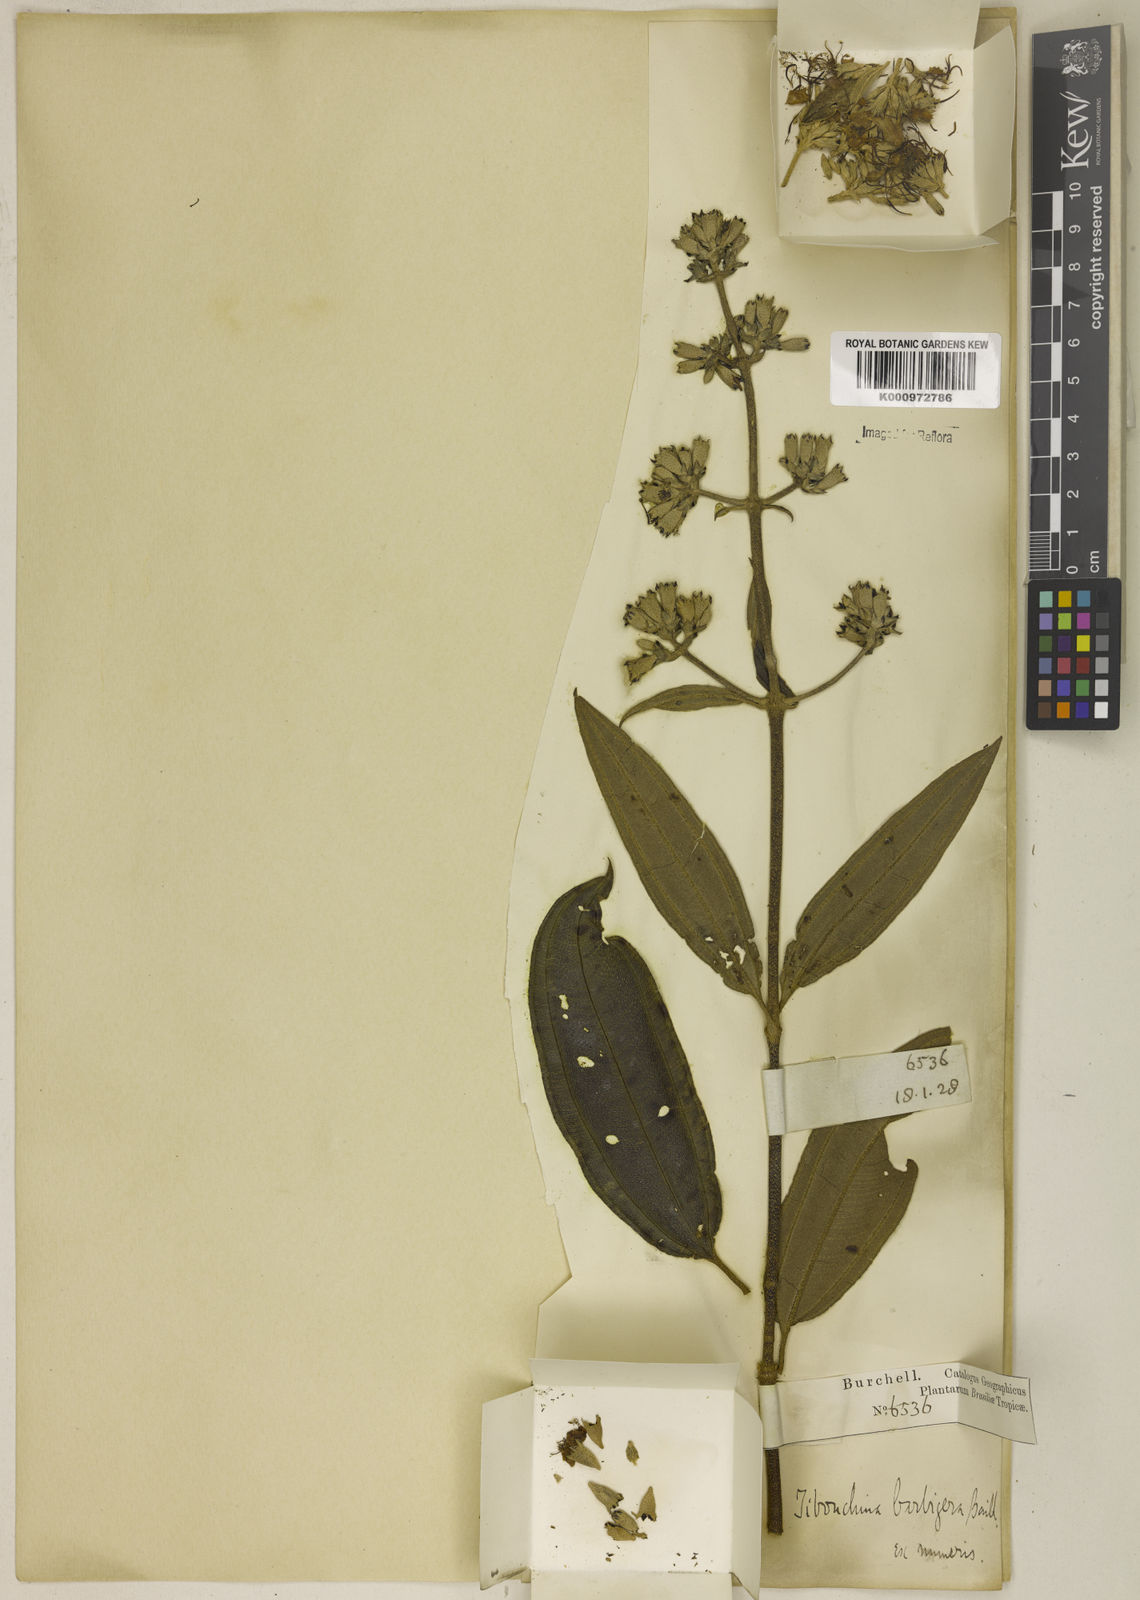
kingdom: Plantae
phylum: Tracheophyta
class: Magnoliopsida
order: Myrtales
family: Melastomataceae
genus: Pleroma
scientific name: Pleroma barbigerum
